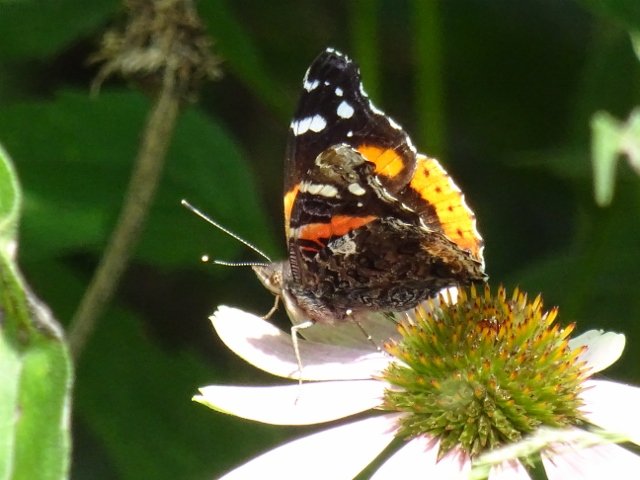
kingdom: Animalia
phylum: Arthropoda
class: Insecta
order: Lepidoptera
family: Nymphalidae
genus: Vanessa
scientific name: Vanessa atalanta
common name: Red Admiral
